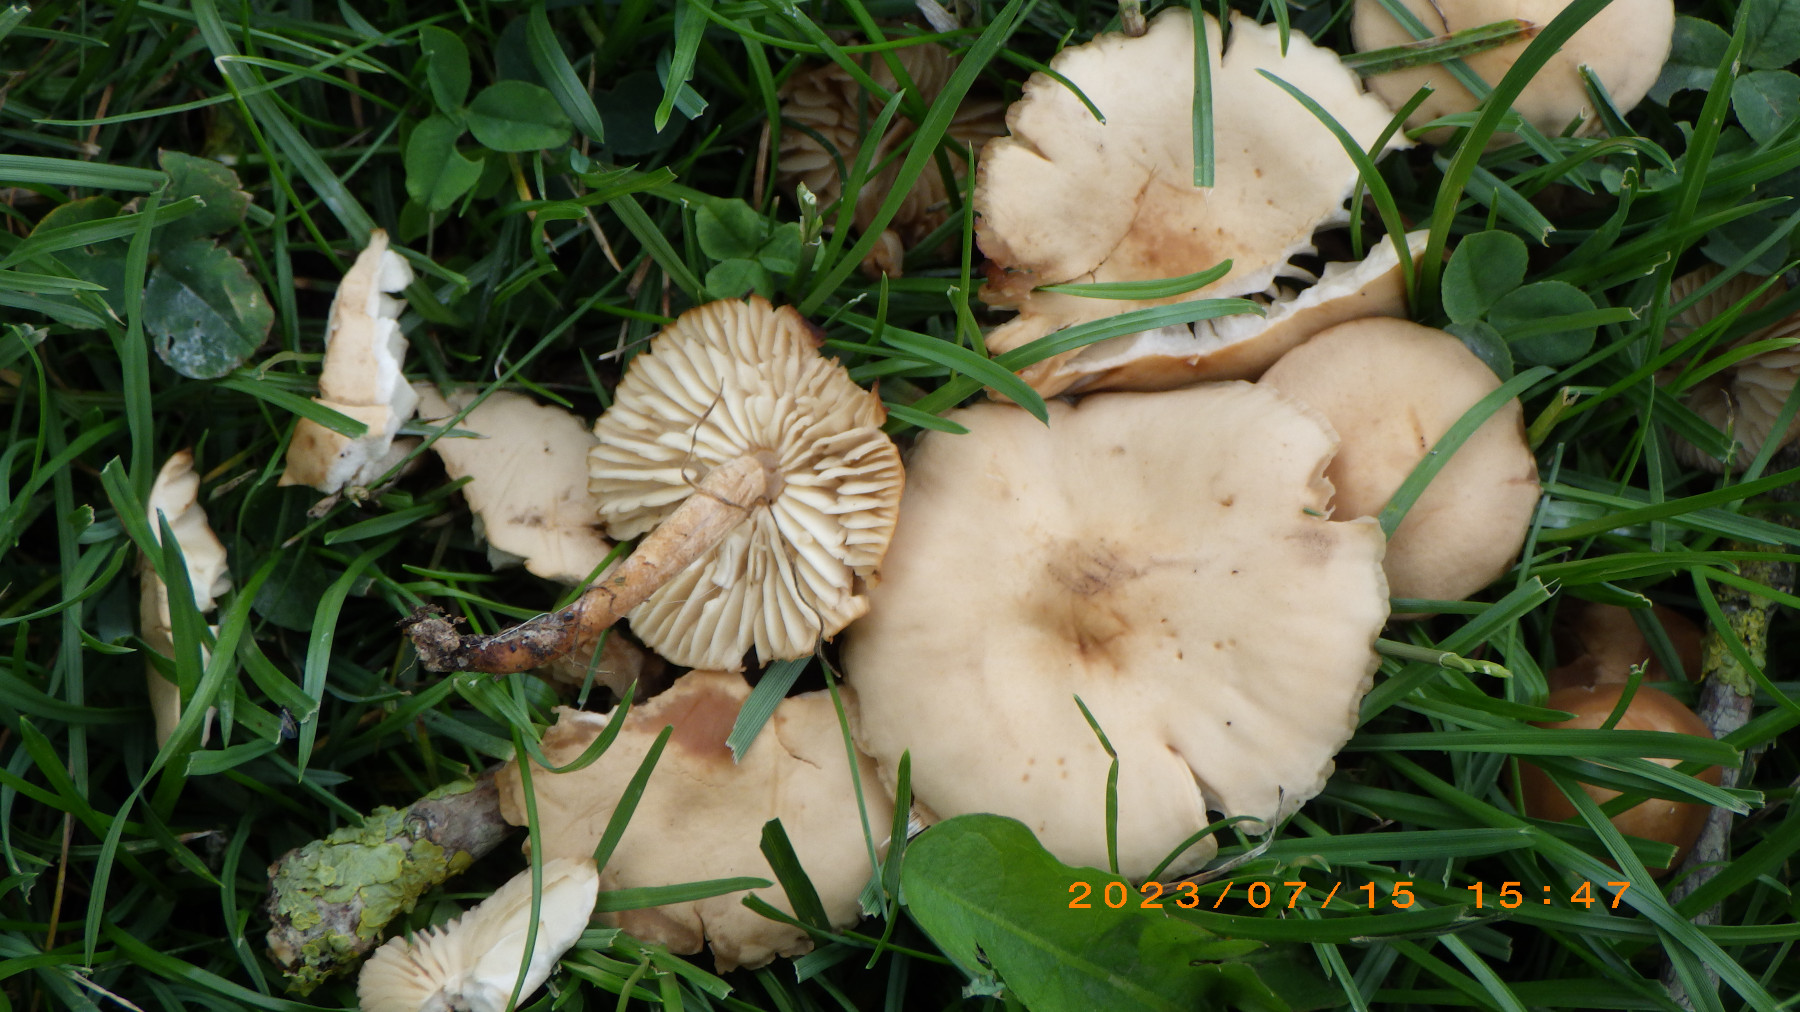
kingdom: Fungi
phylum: Basidiomycota
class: Agaricomycetes
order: Agaricales
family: Marasmiaceae
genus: Marasmius
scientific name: Marasmius oreades
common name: elledans-bruskhat
